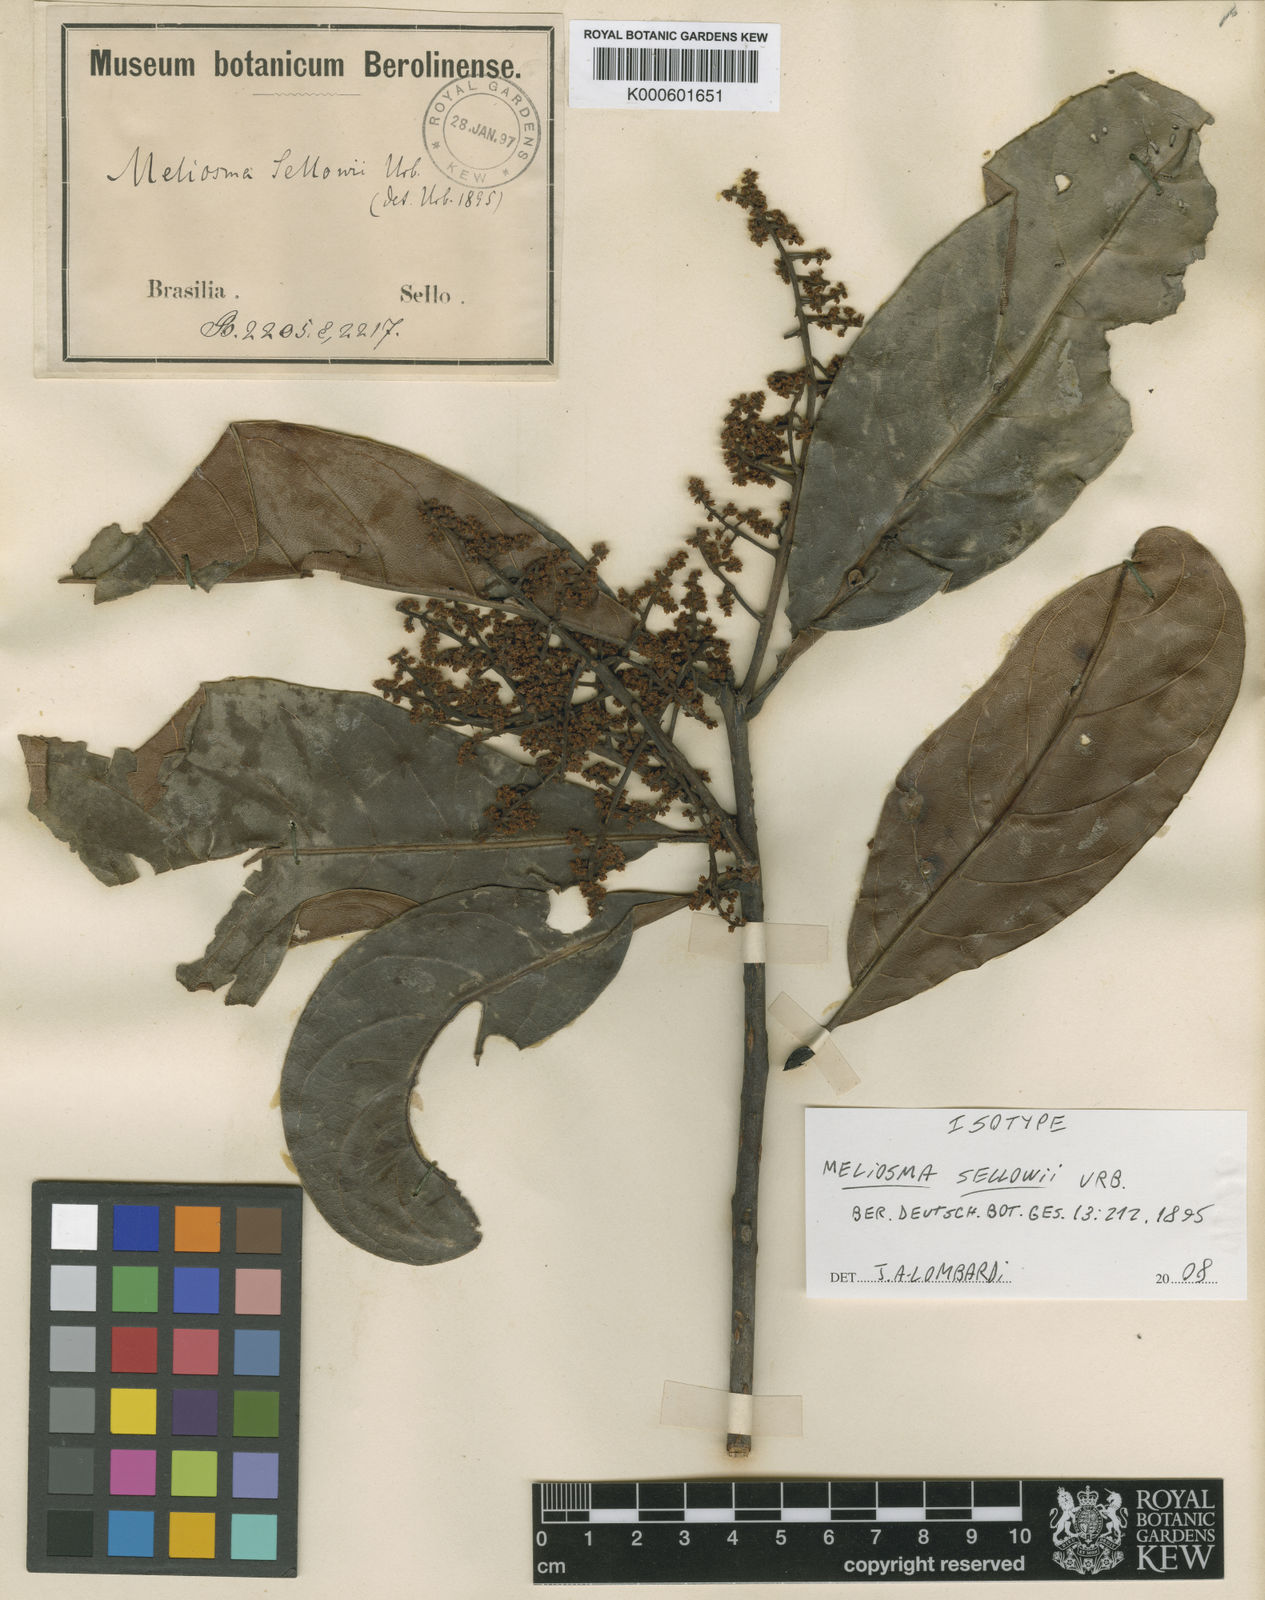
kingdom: Plantae
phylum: Tracheophyta
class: Magnoliopsida
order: Proteales
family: Sabiaceae
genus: Meliosma
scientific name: Meliosma sellowii
